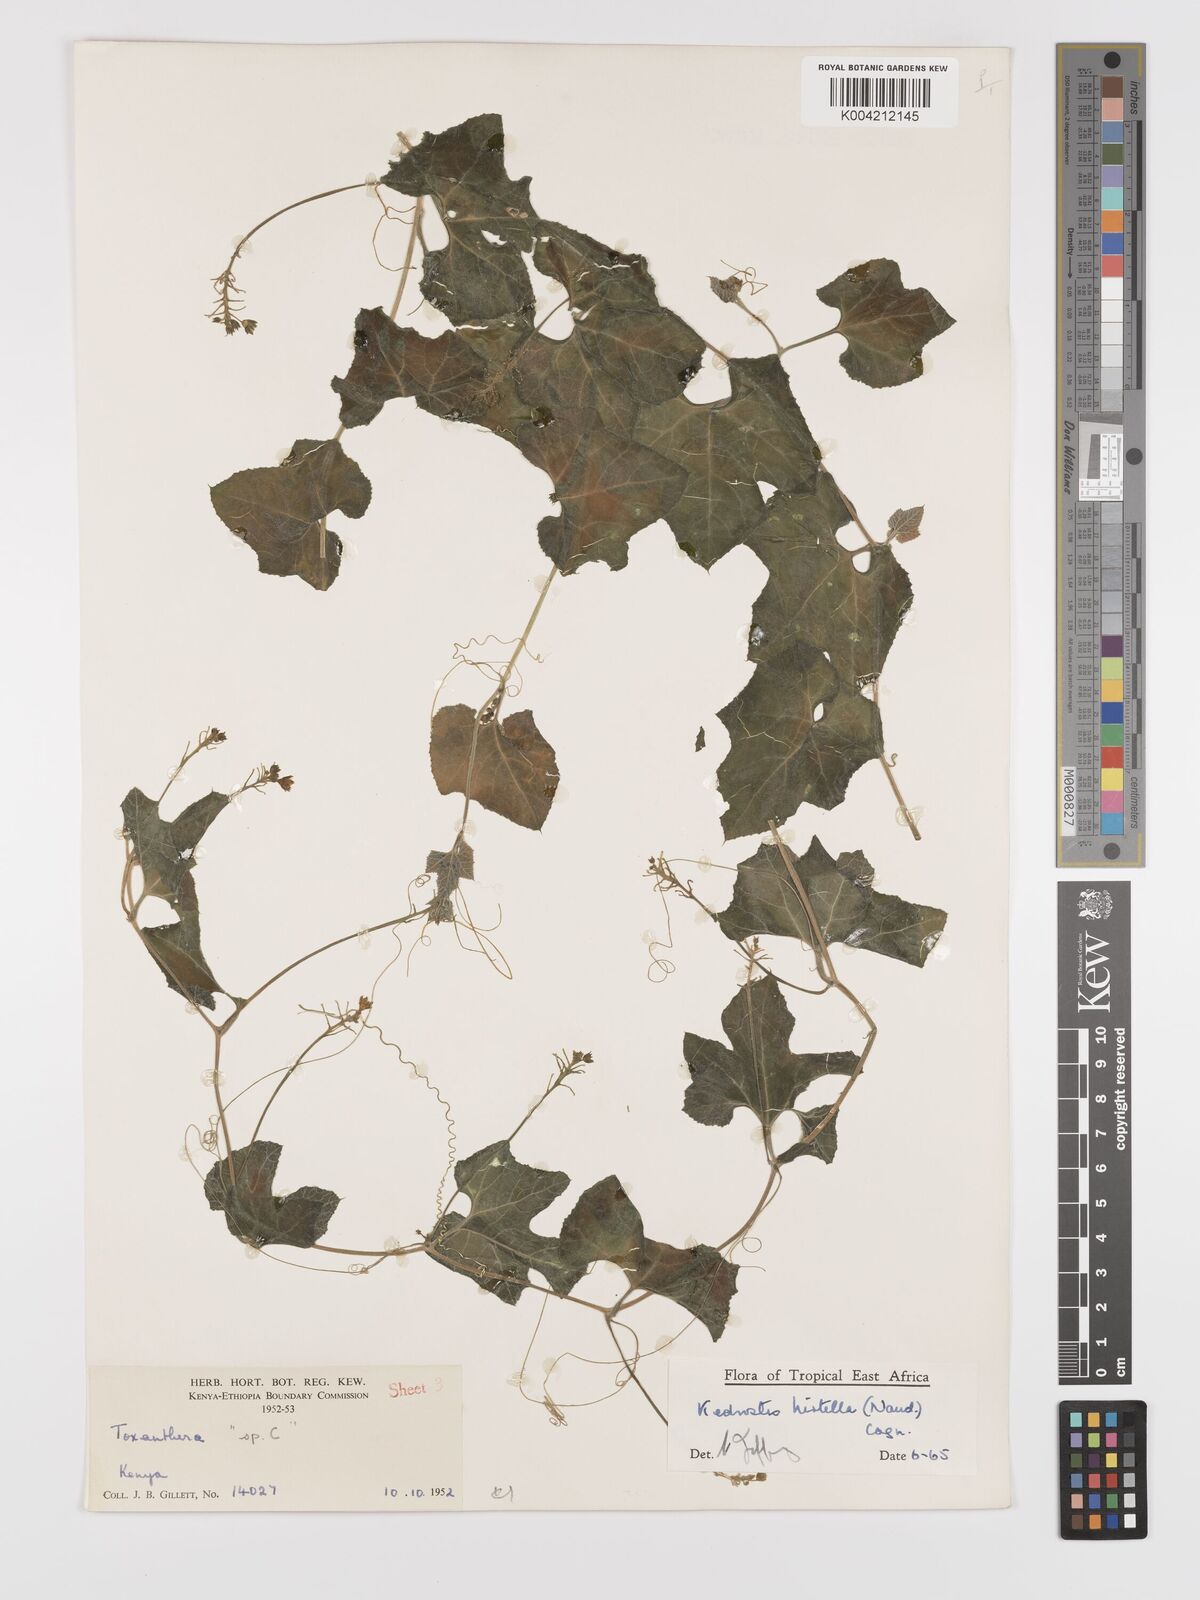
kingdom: Plantae
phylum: Tracheophyta
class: Magnoliopsida
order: Cucurbitales
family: Cucurbitaceae
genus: Kedrostis
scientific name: Kedrostis leloja
